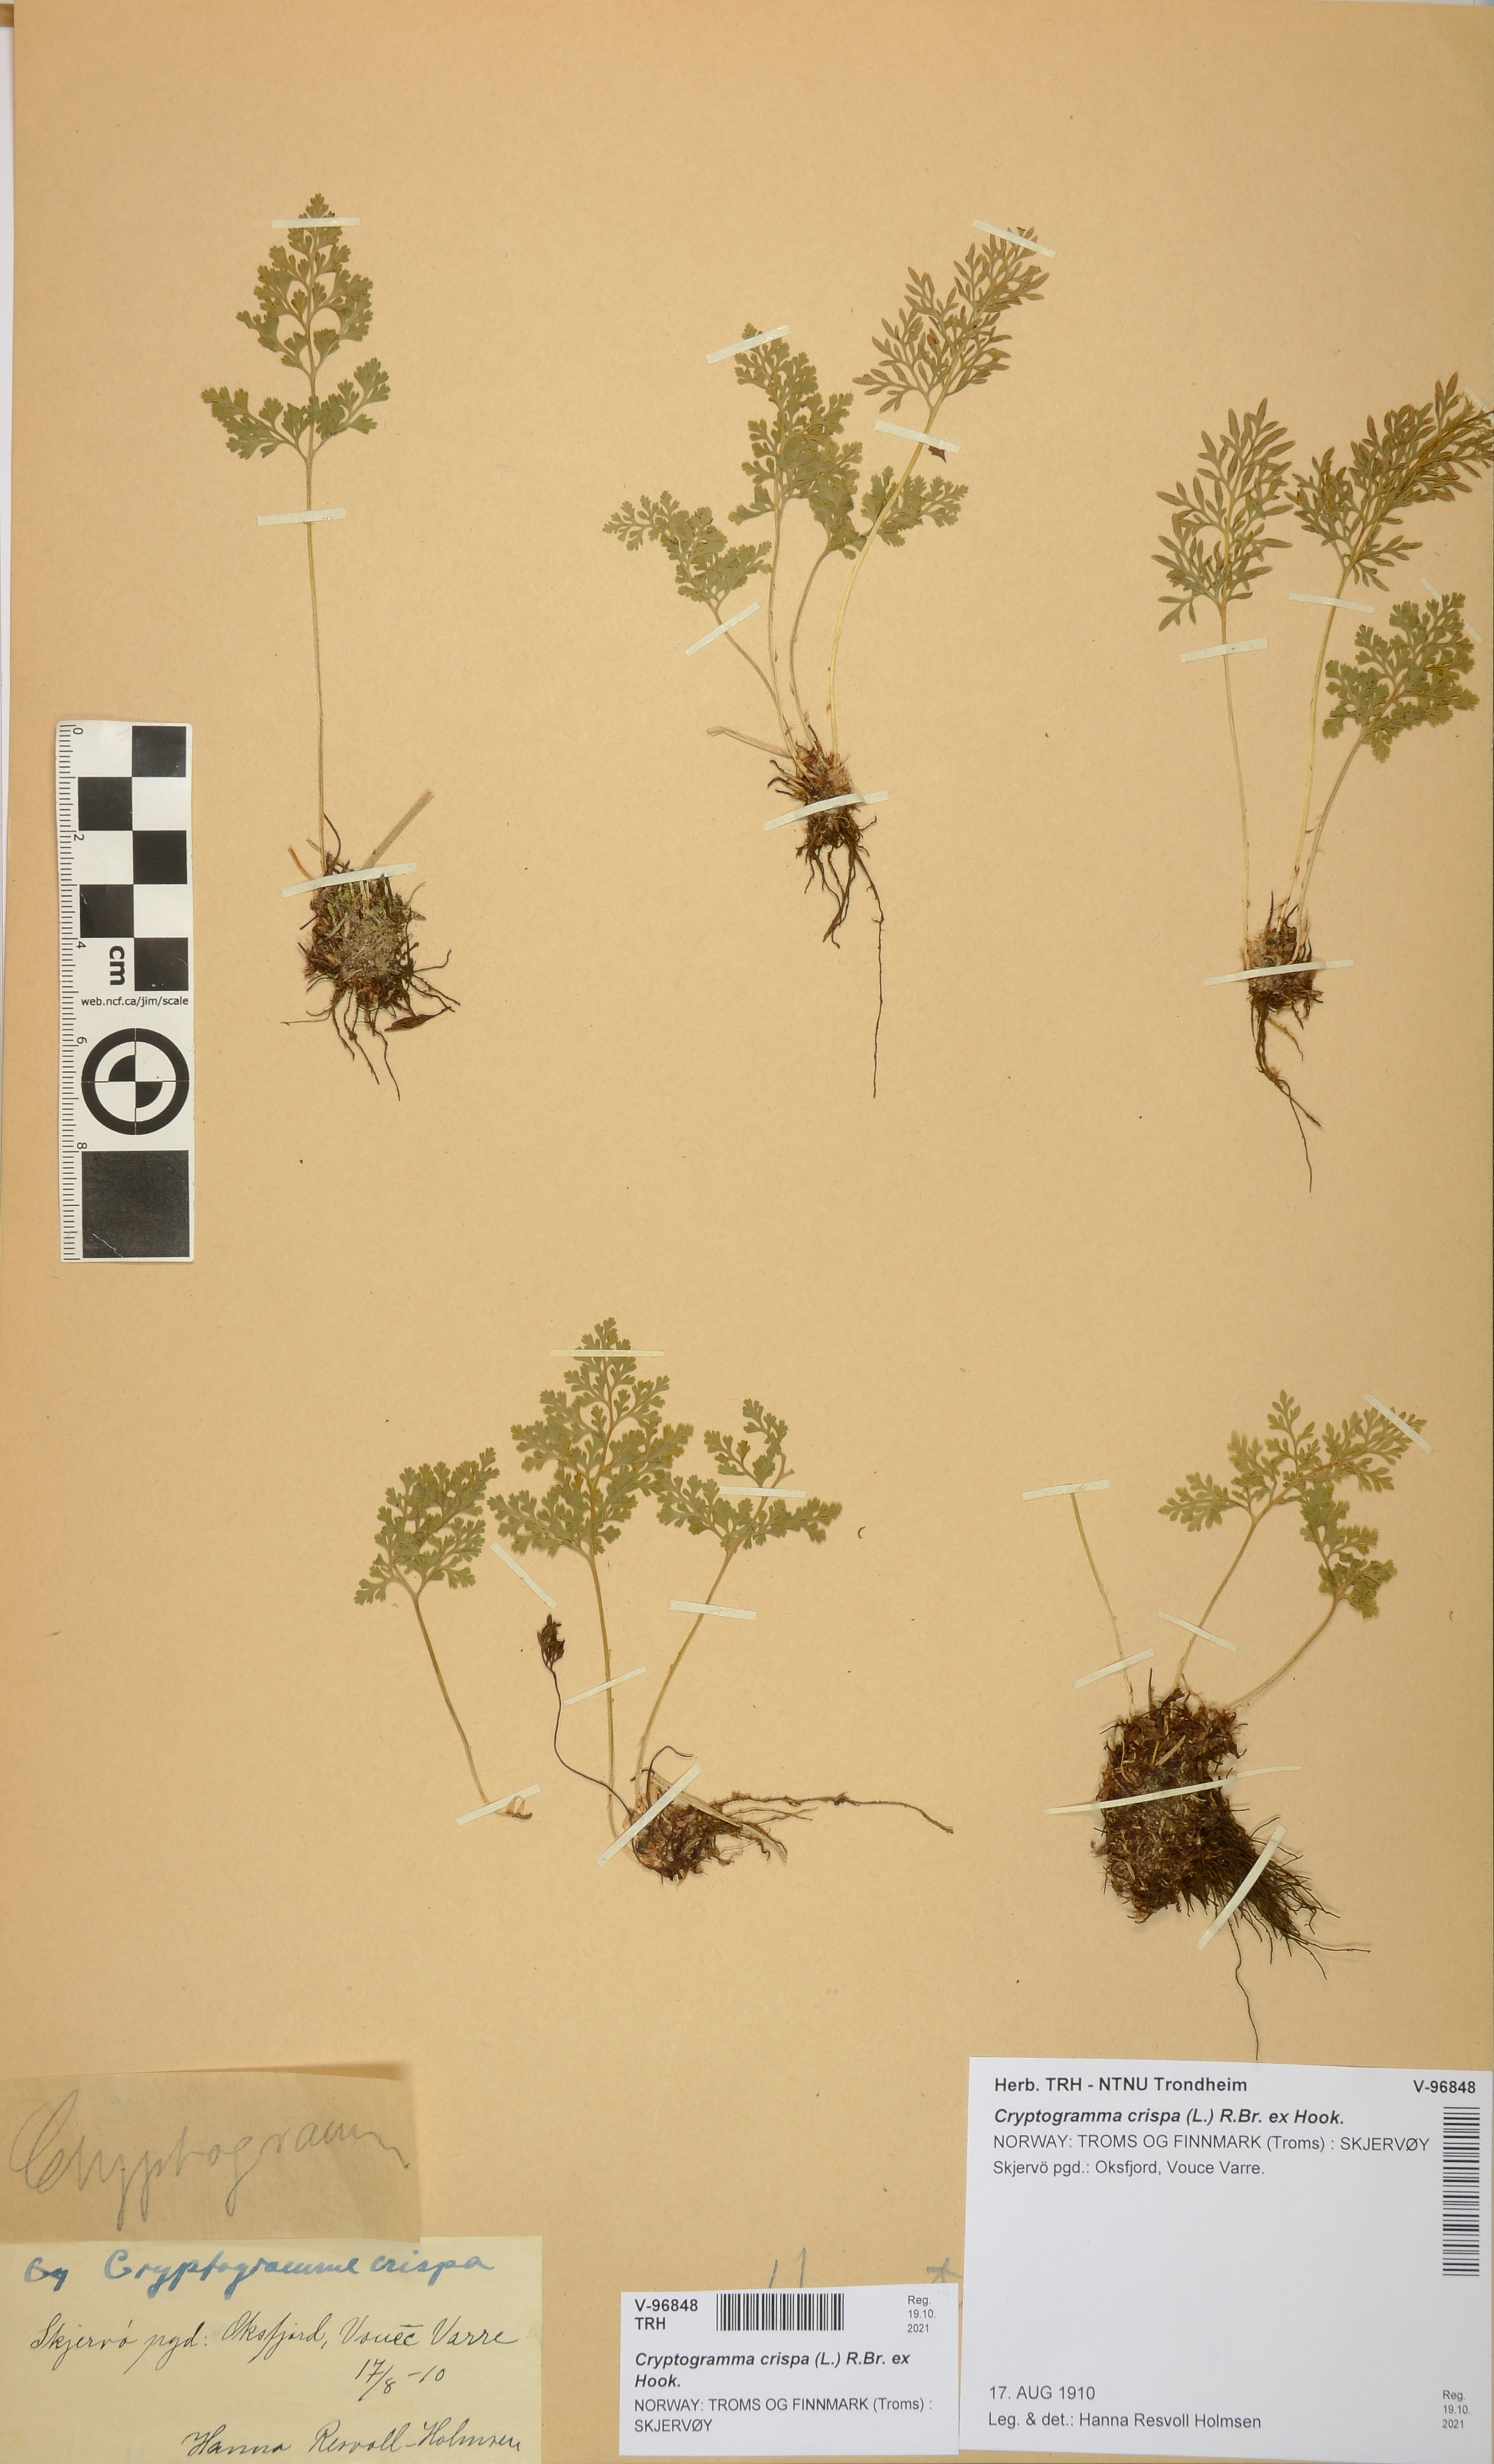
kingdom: Plantae
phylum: Tracheophyta
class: Polypodiopsida
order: Polypodiales
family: Pteridaceae
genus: Cryptogramma
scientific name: Cryptogramma crispa
